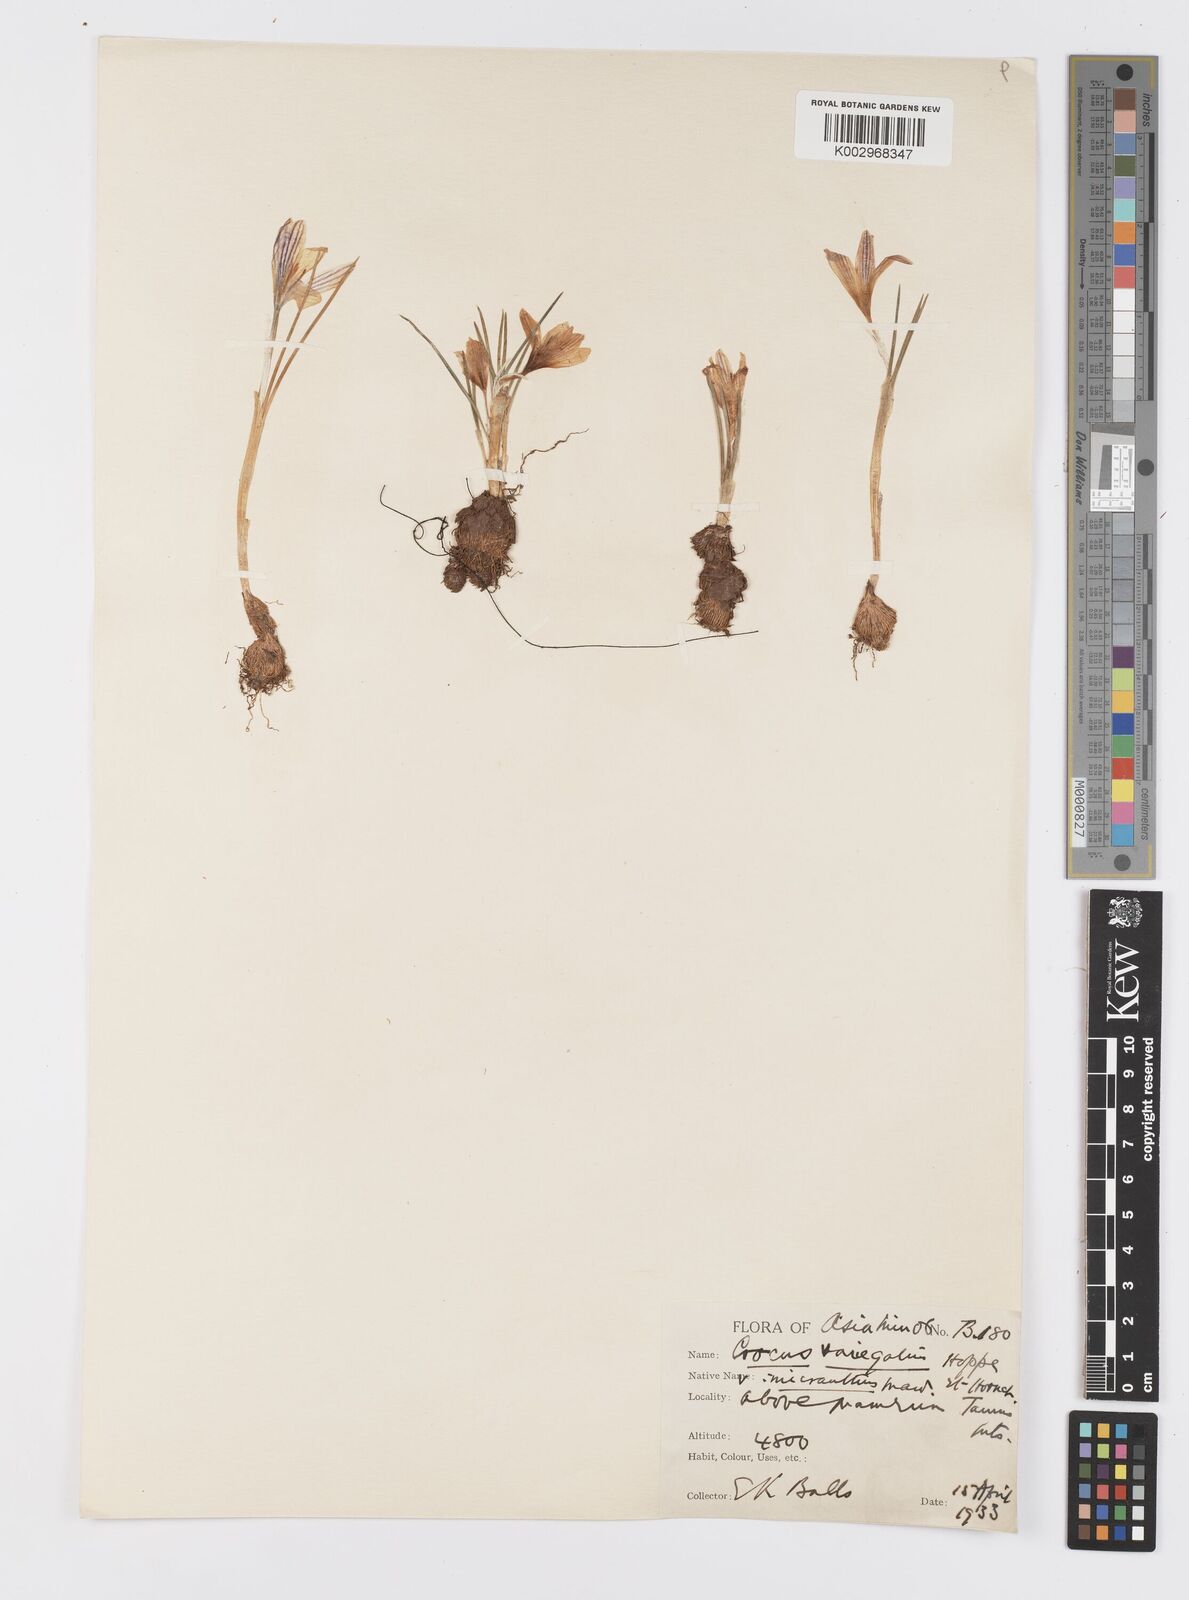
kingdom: Plantae
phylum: Tracheophyta
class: Liliopsida
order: Asparagales
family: Iridaceae
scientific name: Iridaceae
